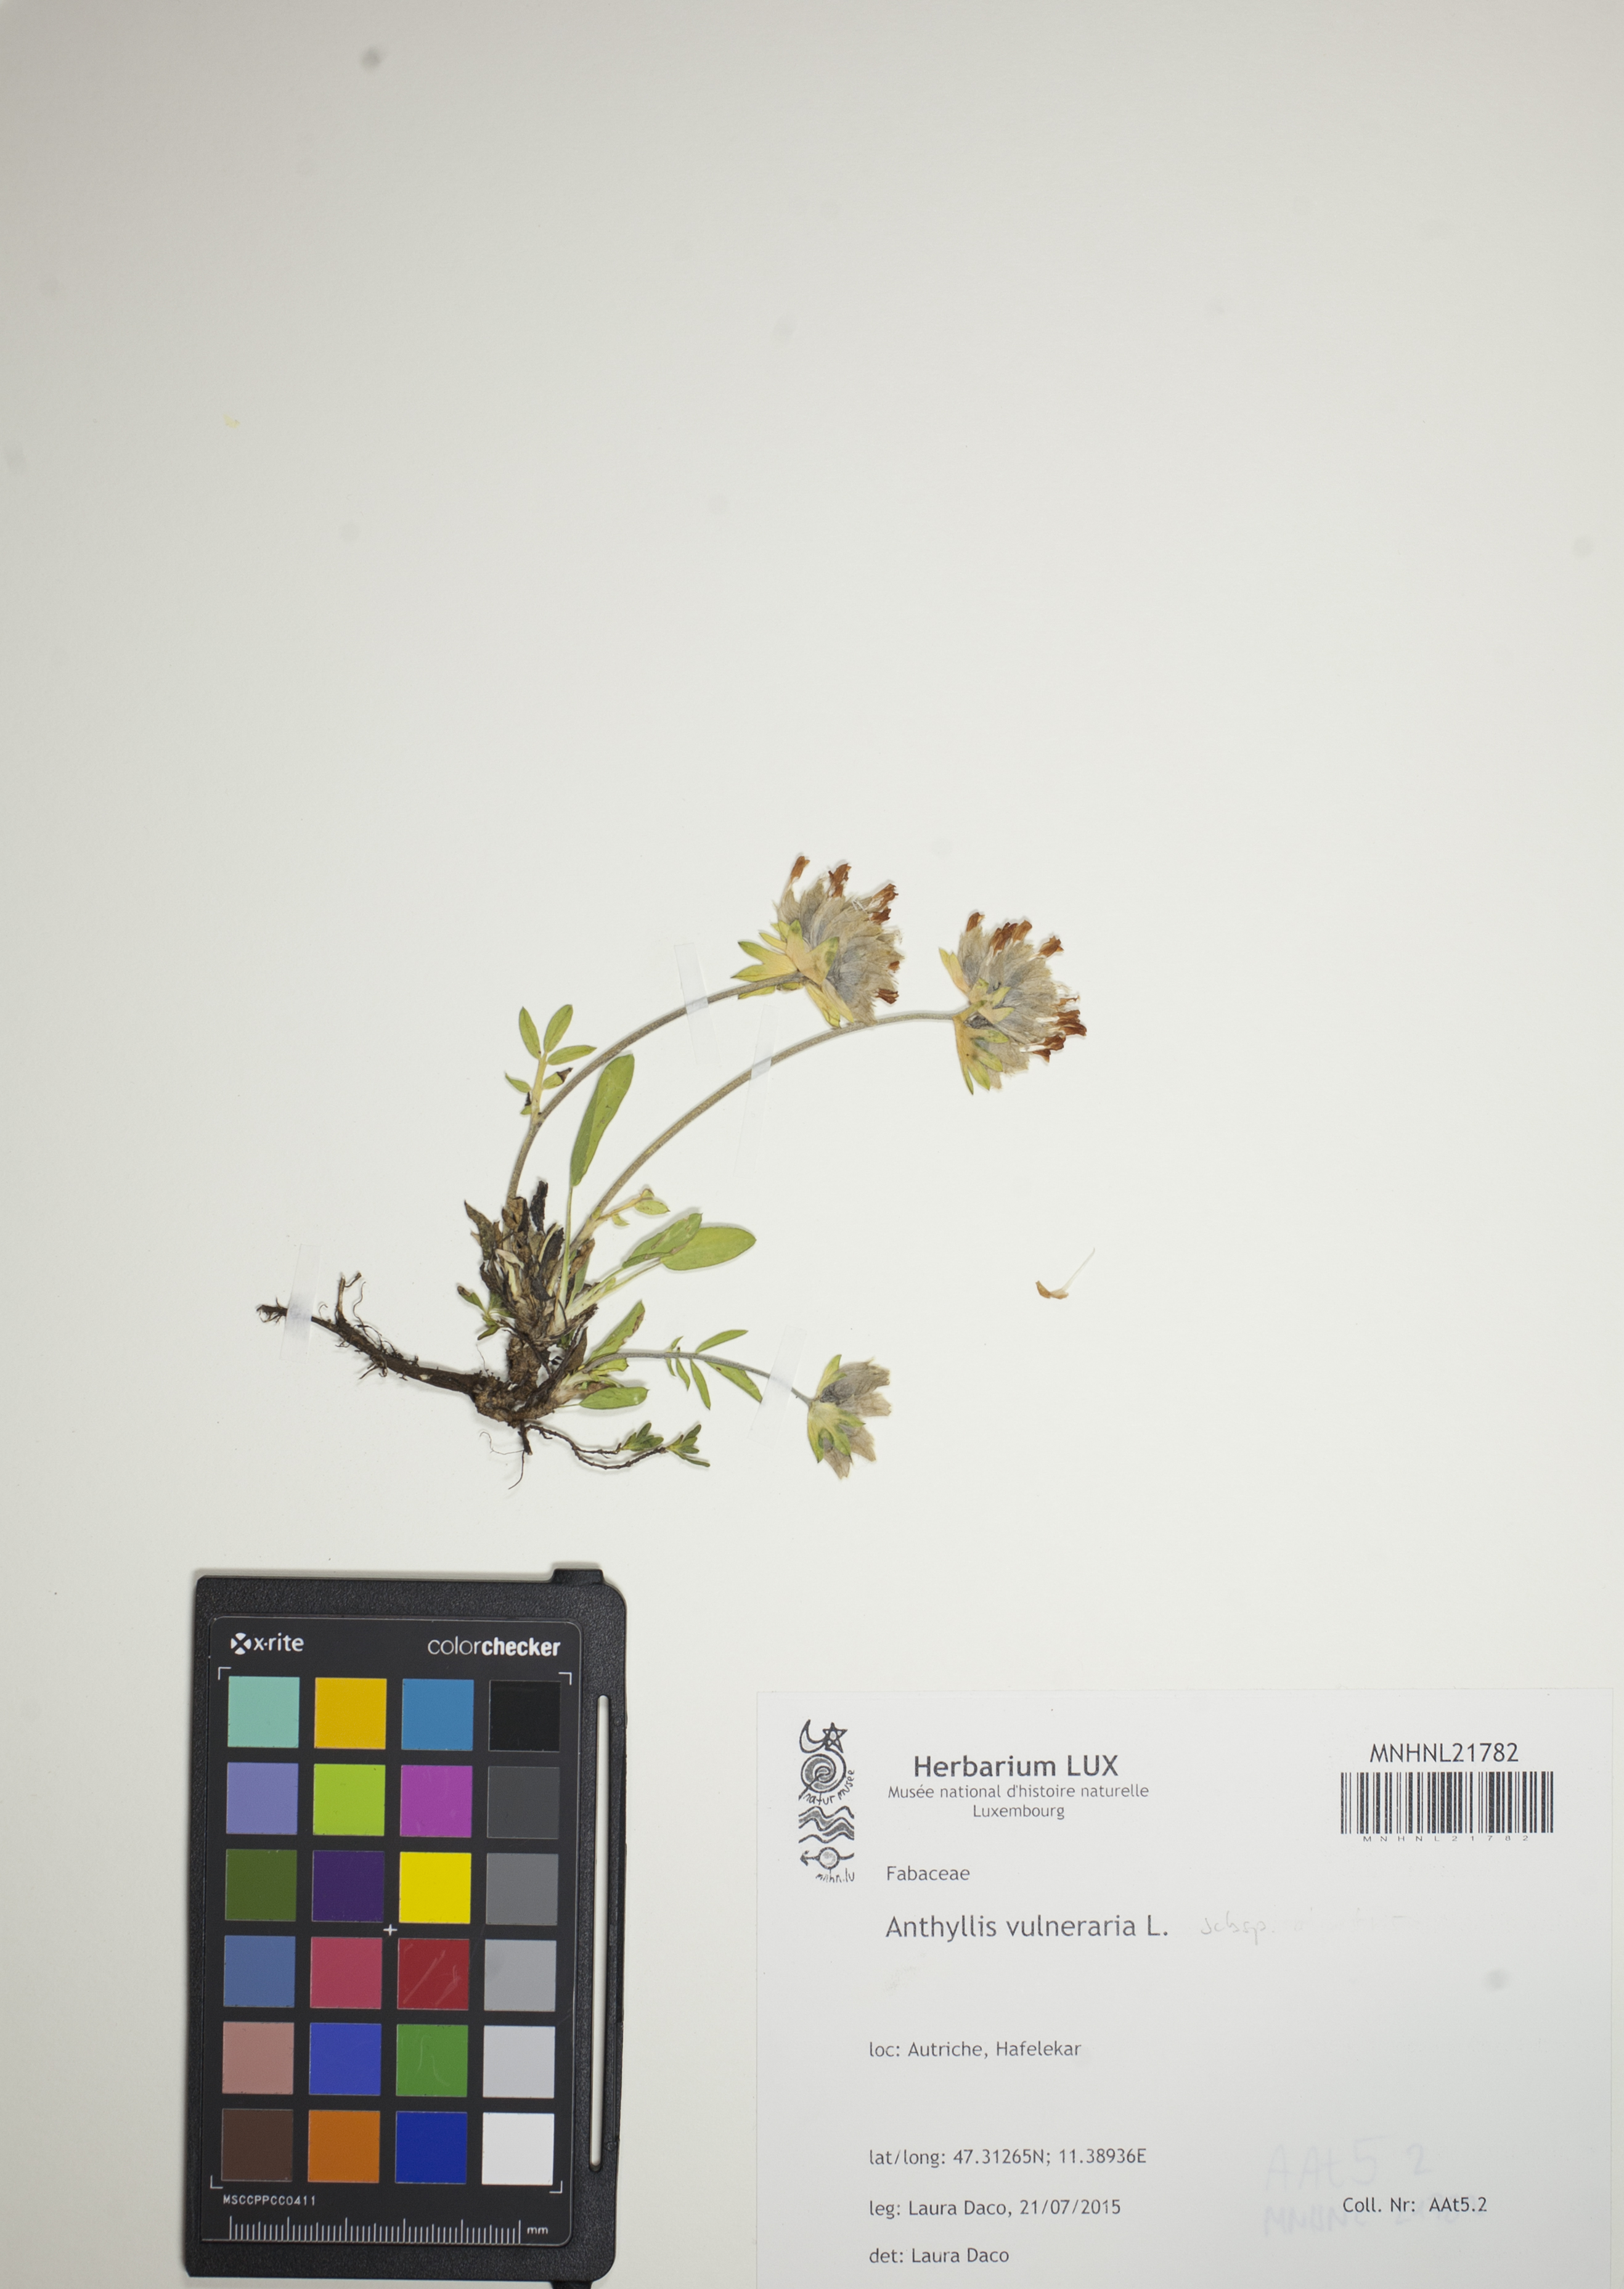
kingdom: Plantae
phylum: Tracheophyta
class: Magnoliopsida
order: Fabales
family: Fabaceae
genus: Anthyllis
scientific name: Anthyllis vulneraria
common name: Kidney vetch
